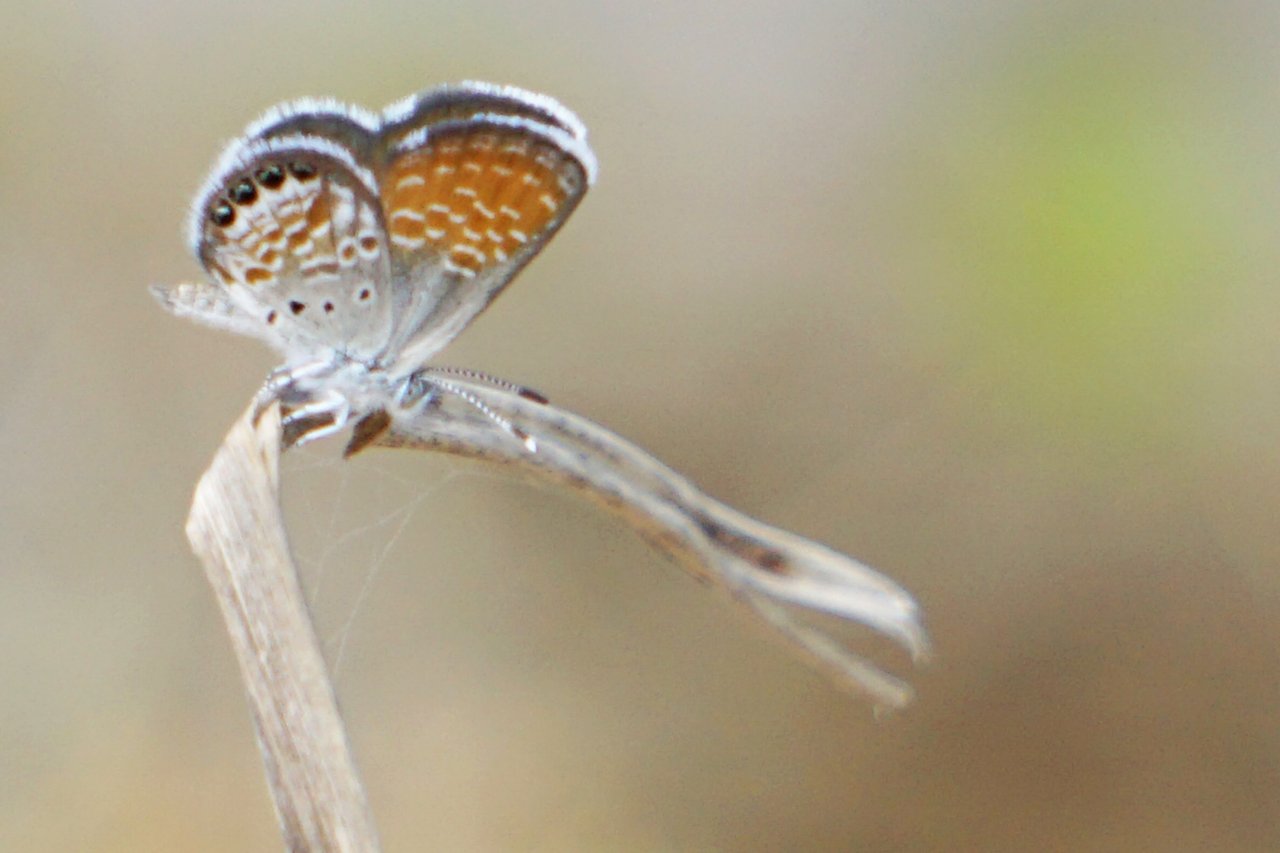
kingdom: Animalia
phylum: Arthropoda
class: Insecta
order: Lepidoptera
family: Lycaenidae
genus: Brephidium
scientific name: Brephidium exilis
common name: Western Pygmy-Blue
